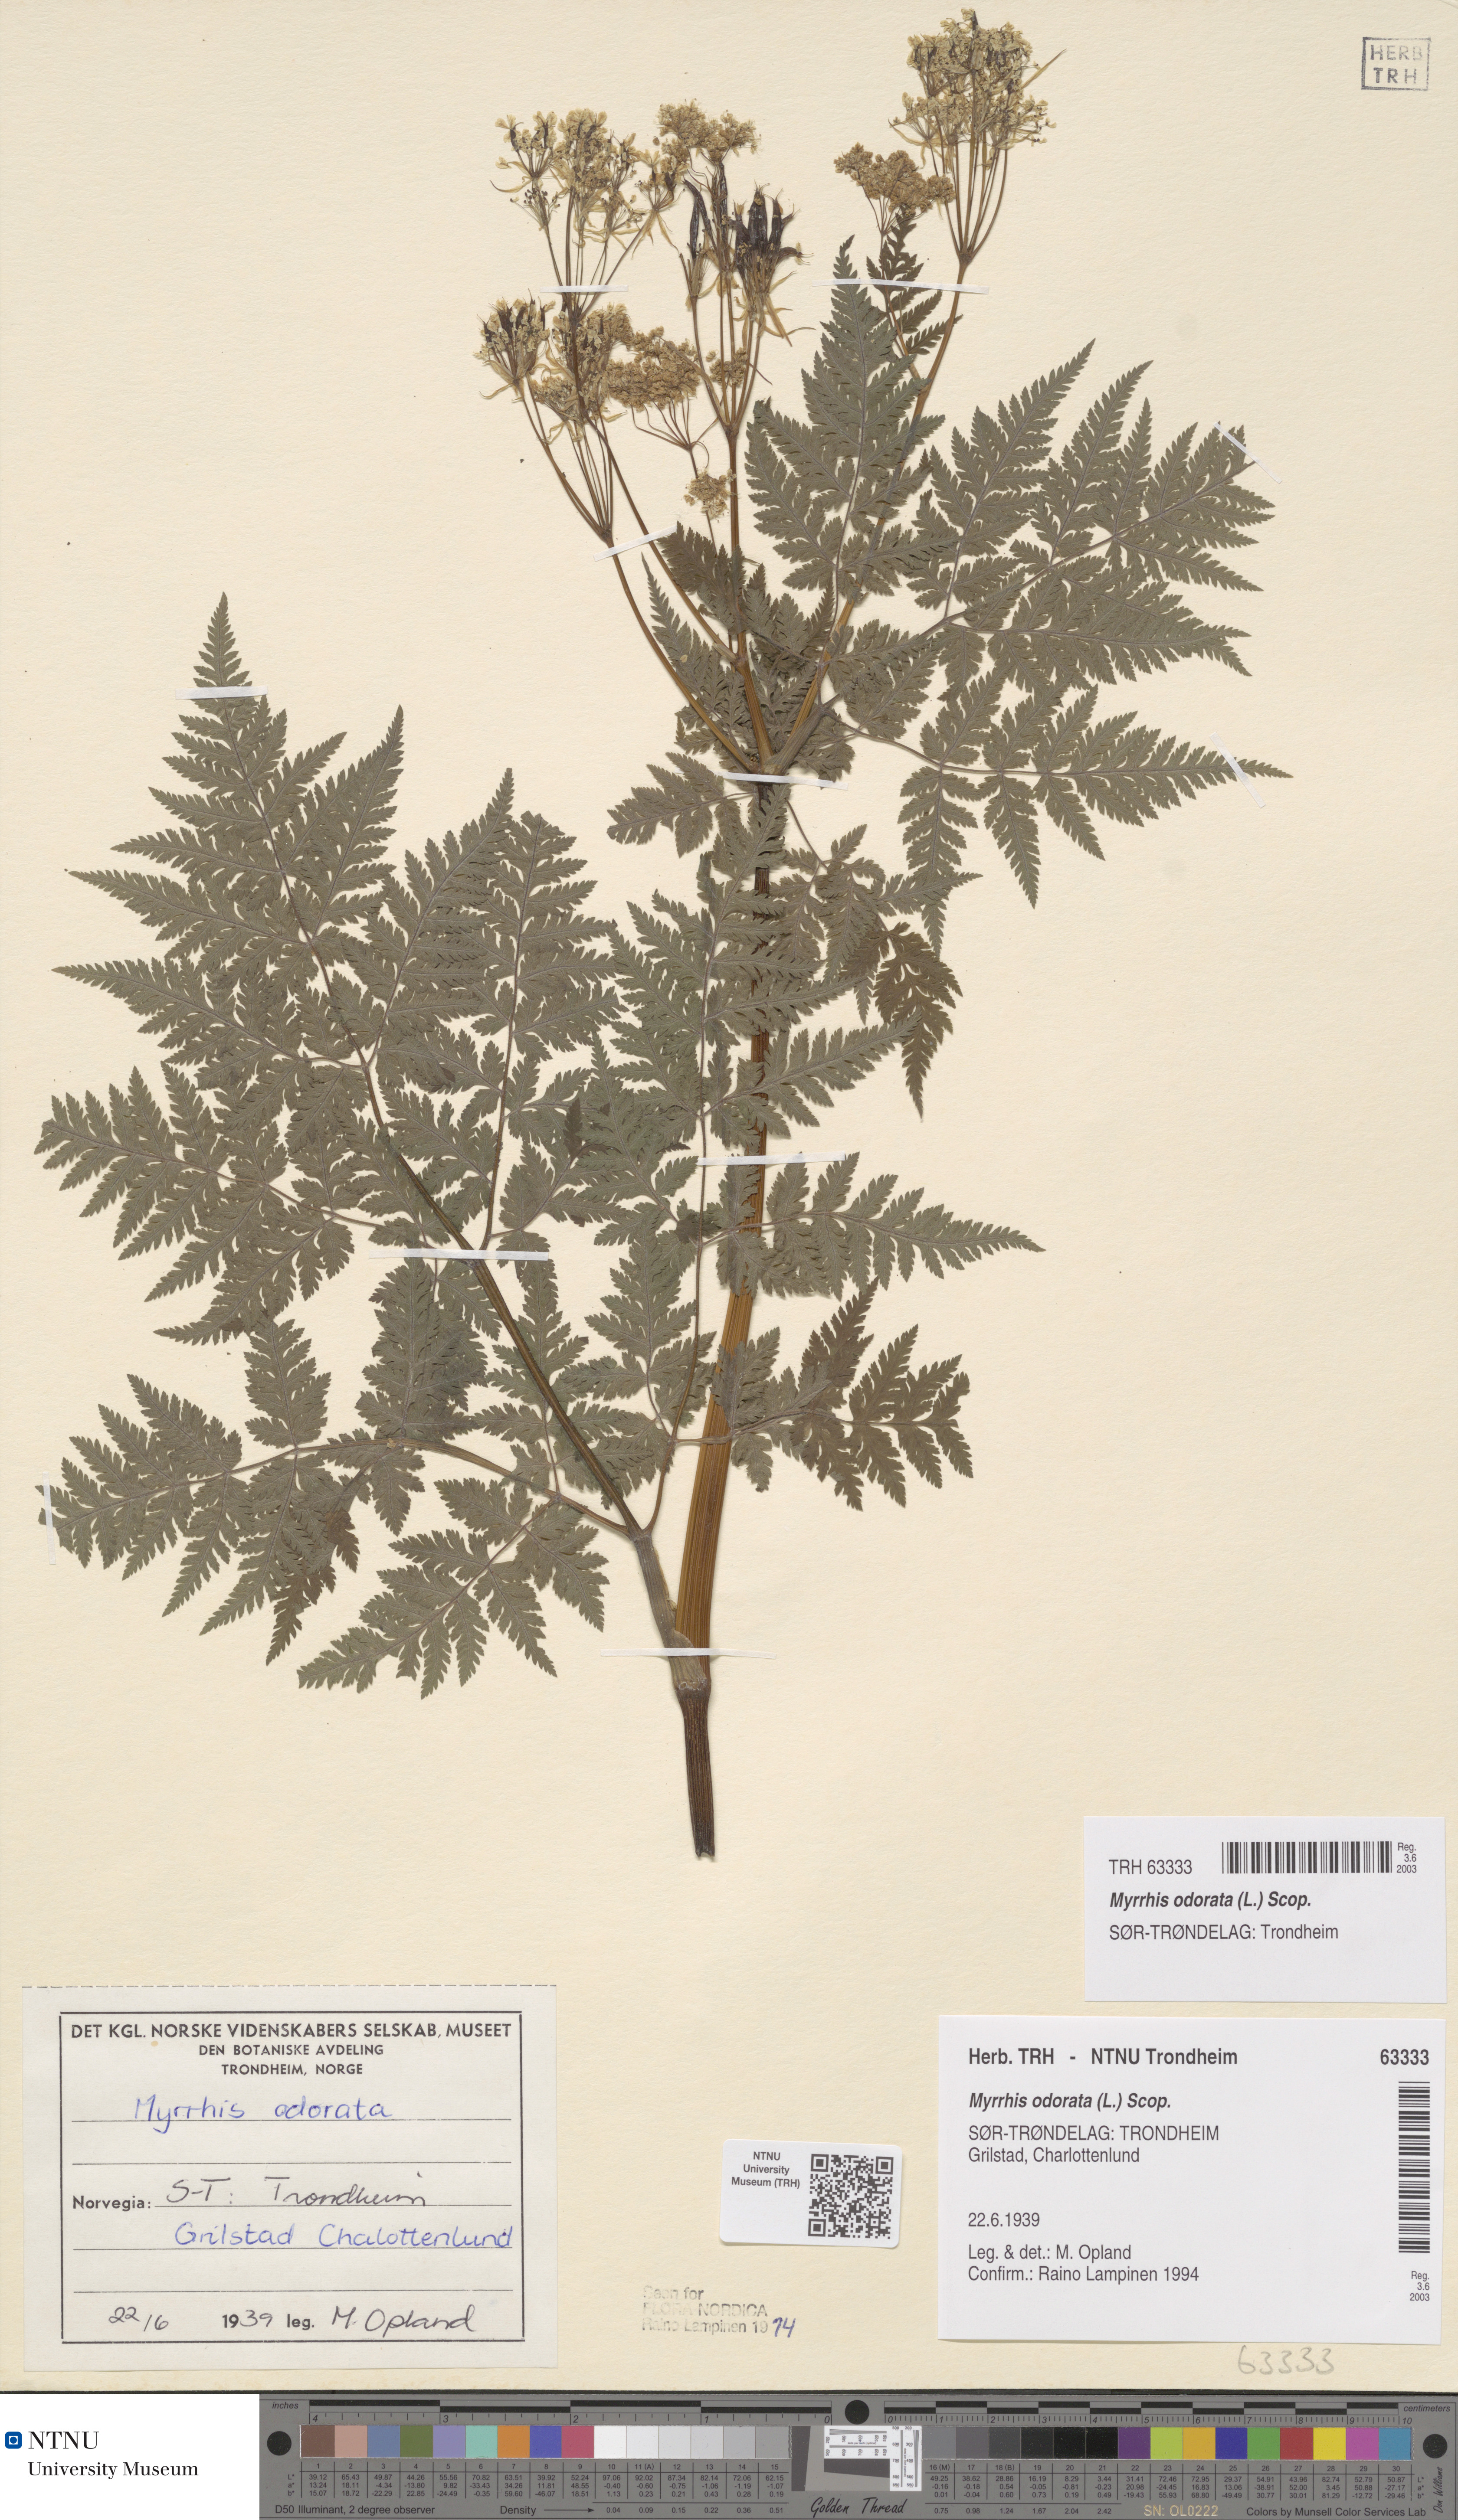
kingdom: Plantae
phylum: Tracheophyta
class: Magnoliopsida
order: Apiales
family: Apiaceae
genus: Myrrhis
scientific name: Myrrhis odorata
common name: Sweet cicely
